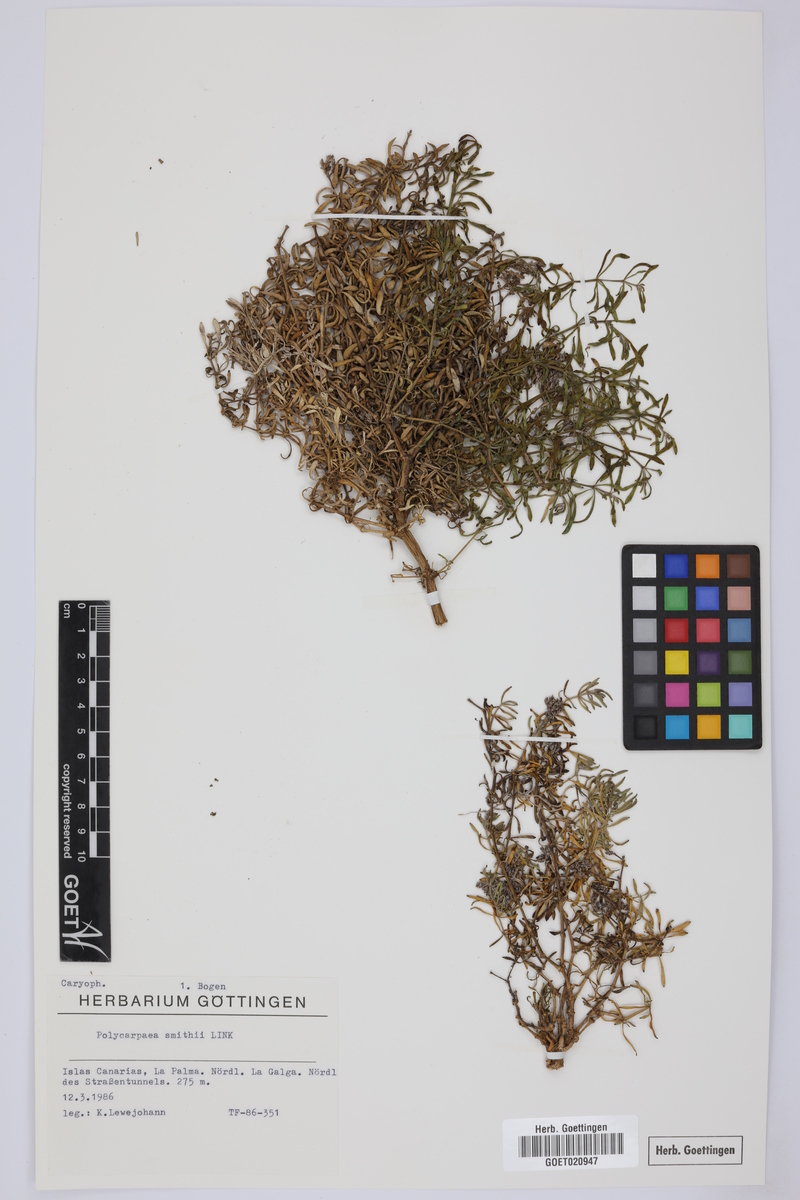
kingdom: Plantae
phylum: Tracheophyta
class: Magnoliopsida
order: Caryophyllales
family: Caryophyllaceae
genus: Polycarpaea
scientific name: Polycarpaea smithii
